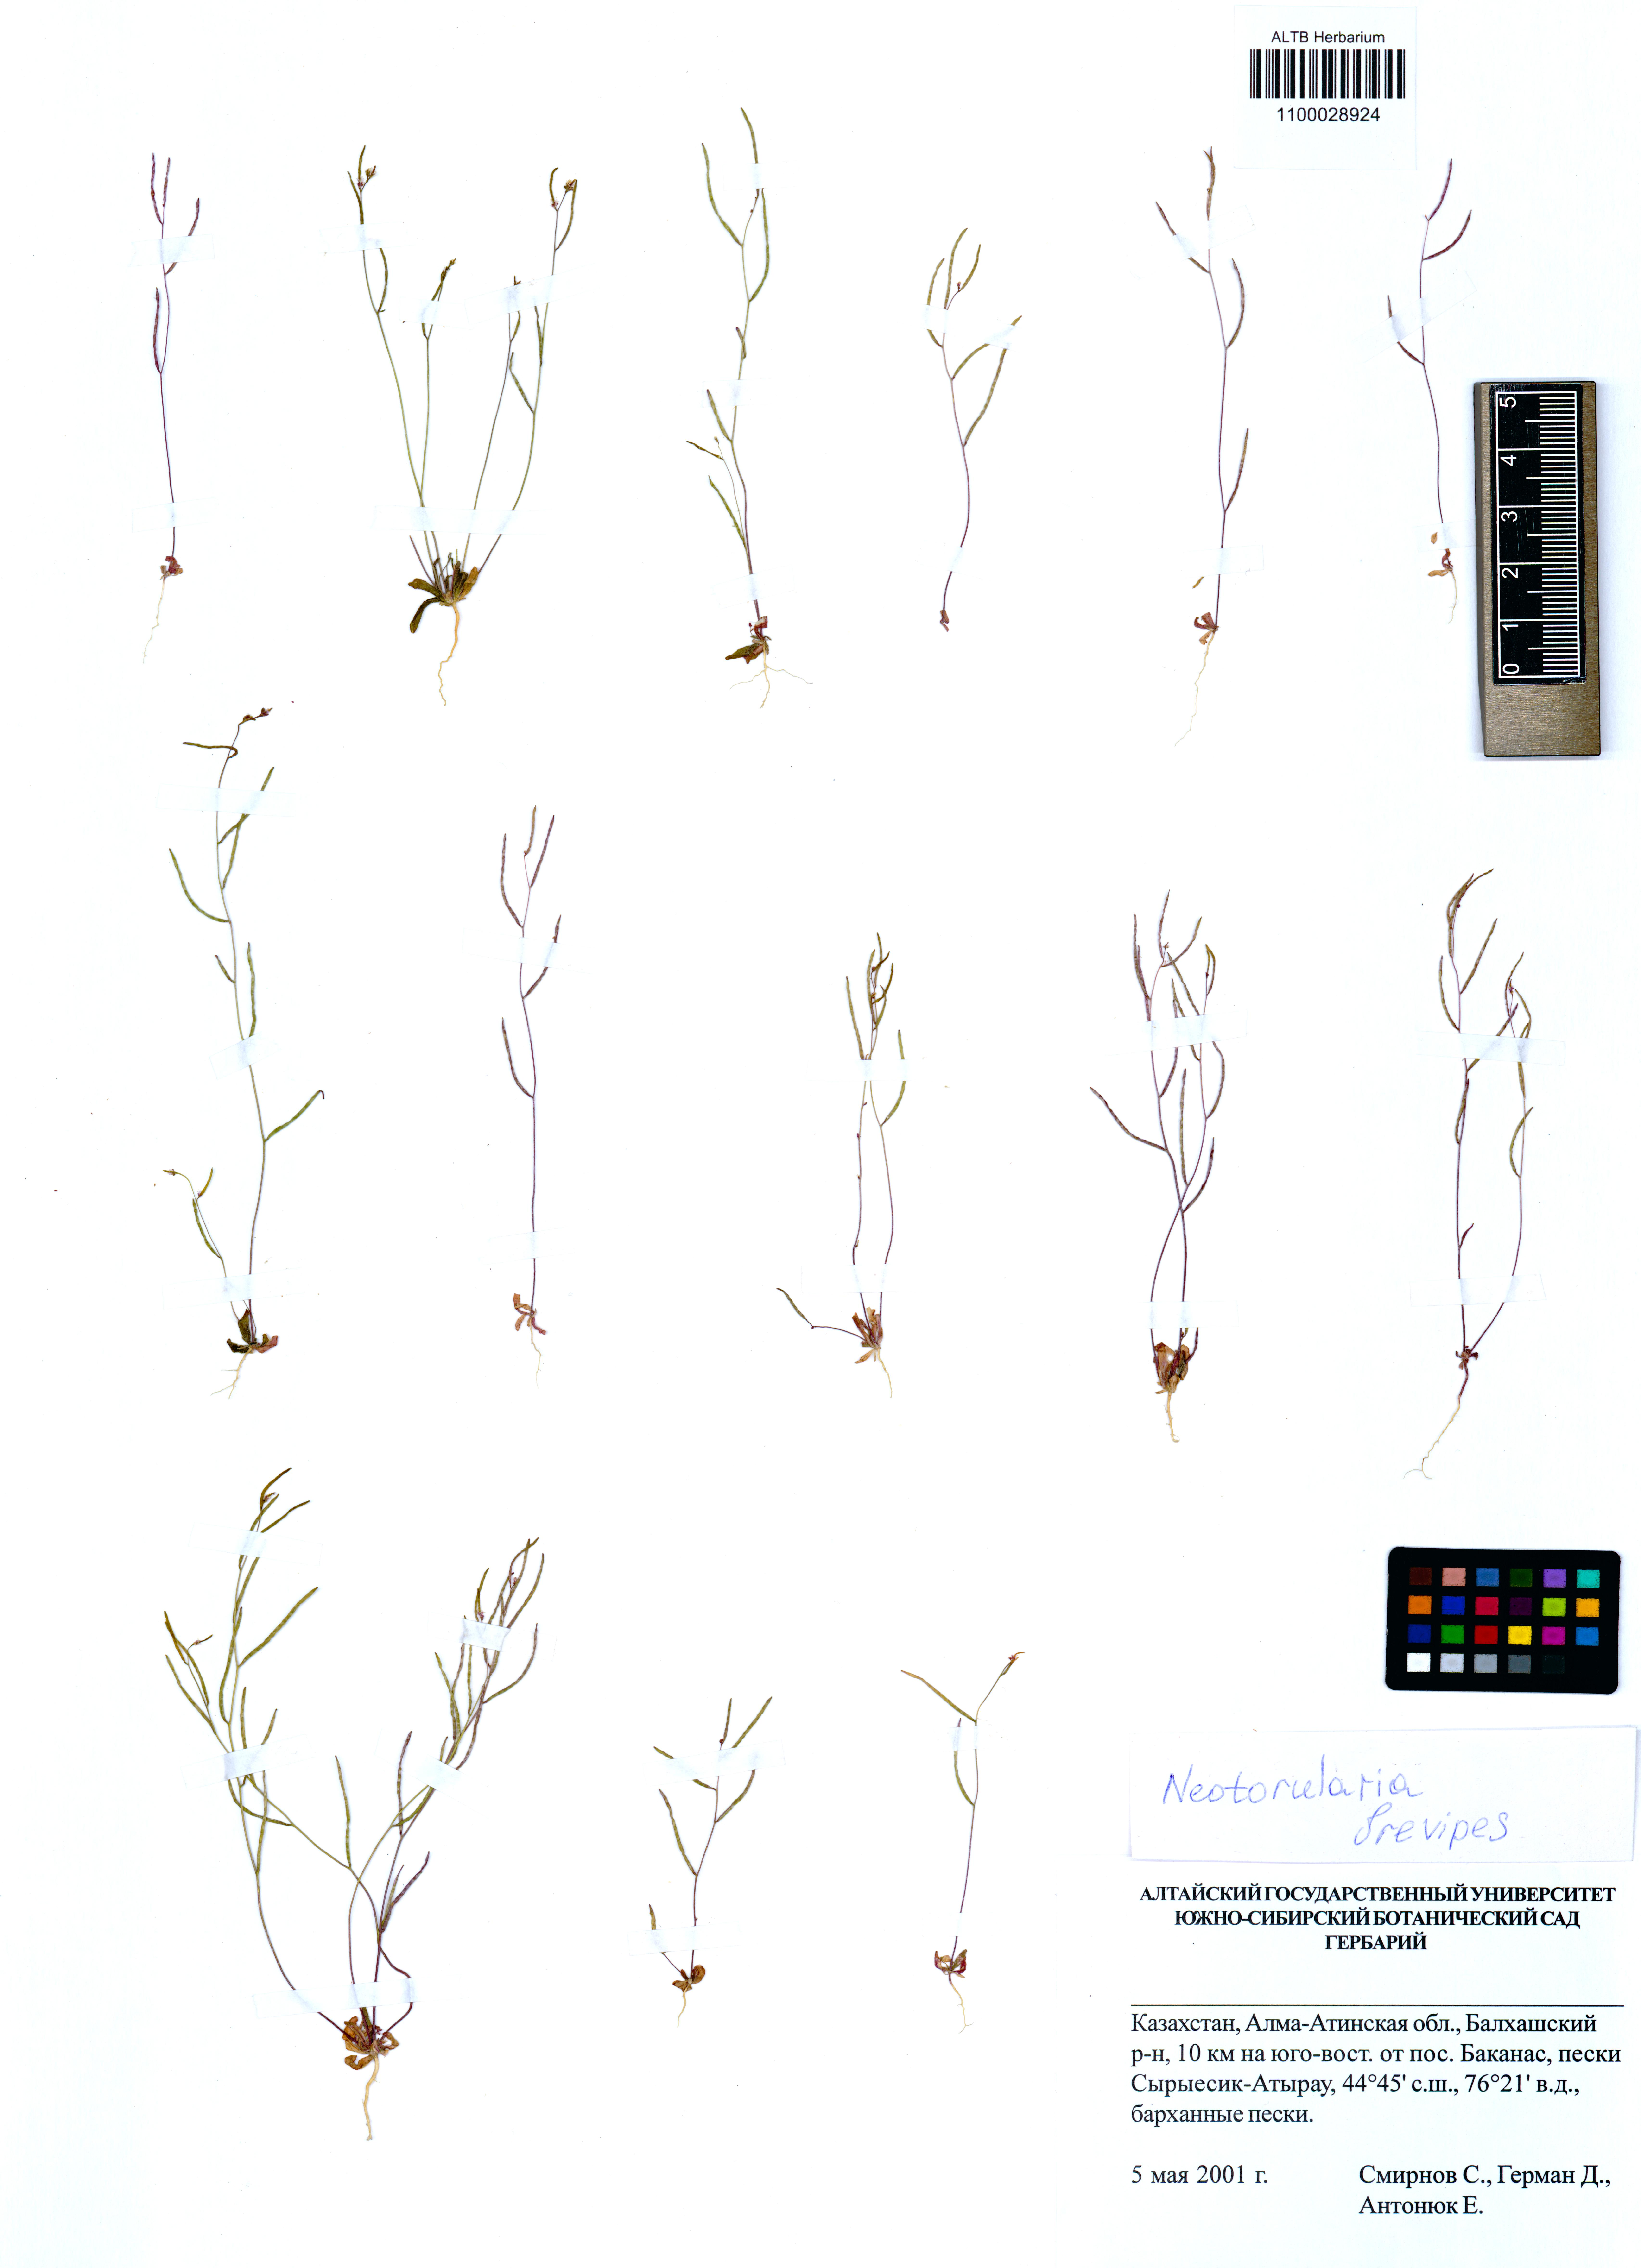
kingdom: Plantae
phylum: Tracheophyta
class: Magnoliopsida
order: Brassicales
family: Brassicaceae
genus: Neotorularia
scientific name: Neotorularia brevipes
